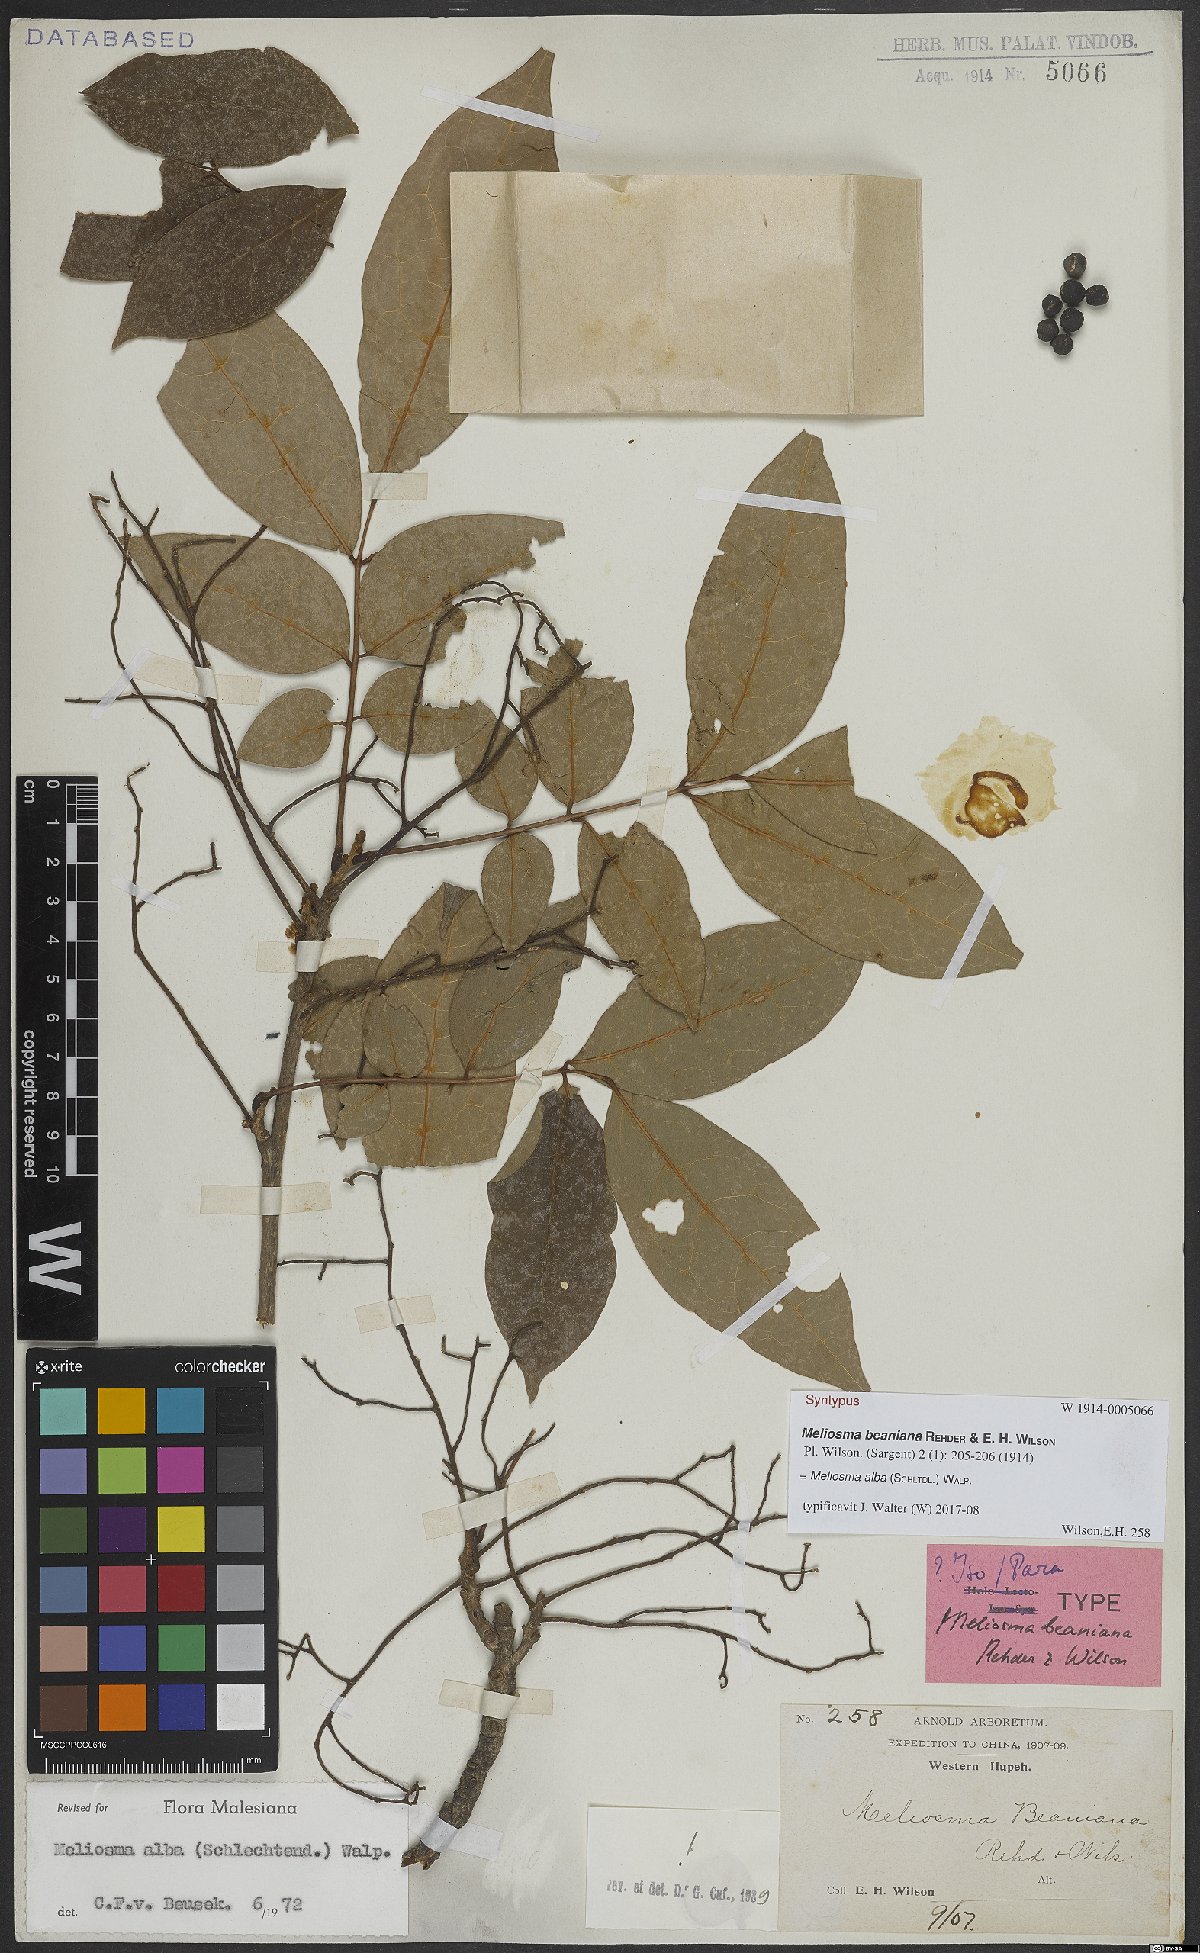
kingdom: Plantae
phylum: Tracheophyta
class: Magnoliopsida
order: Proteales
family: Sabiaceae
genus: Meliosma
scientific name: Meliosma alba
